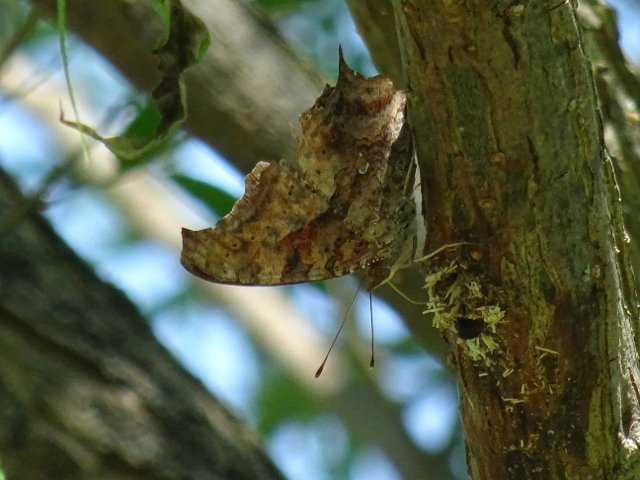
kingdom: Animalia
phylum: Arthropoda
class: Insecta
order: Lepidoptera
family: Nymphalidae
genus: Polygonia
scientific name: Polygonia interrogationis
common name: Question Mark
